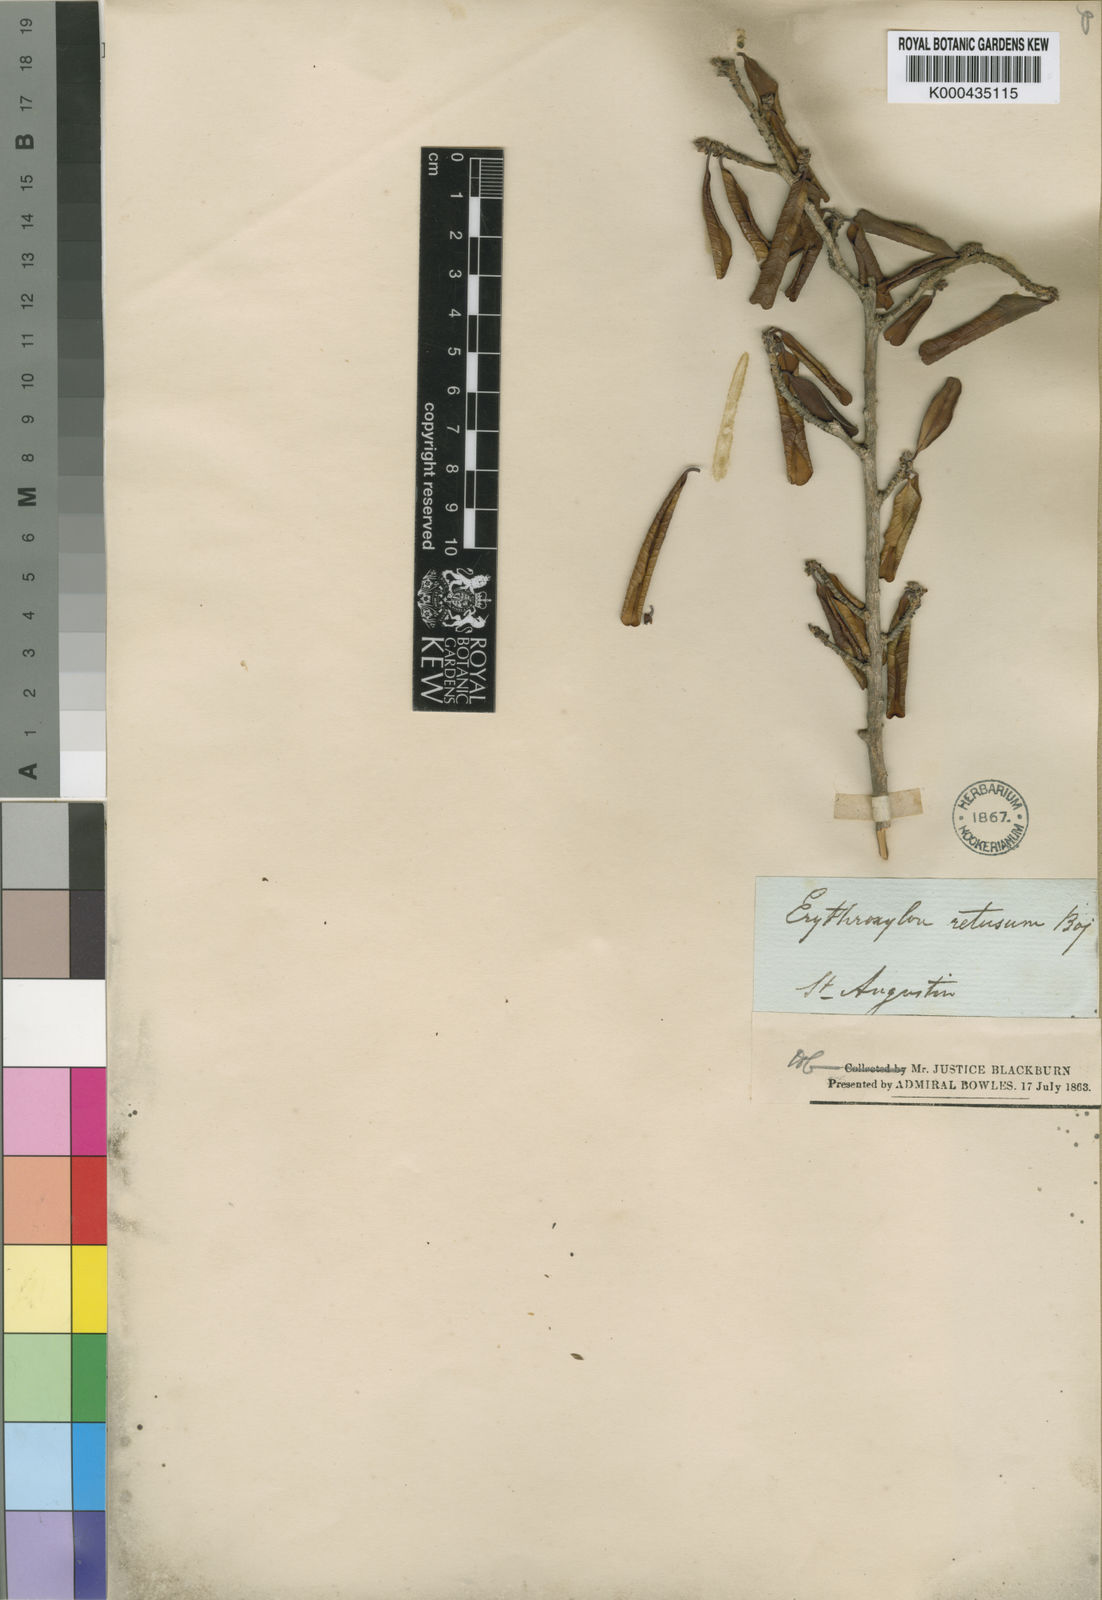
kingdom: Plantae
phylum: Tracheophyta
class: Magnoliopsida
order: Malpighiales
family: Erythroxylaceae
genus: Erythroxylum
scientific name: Erythroxylum
